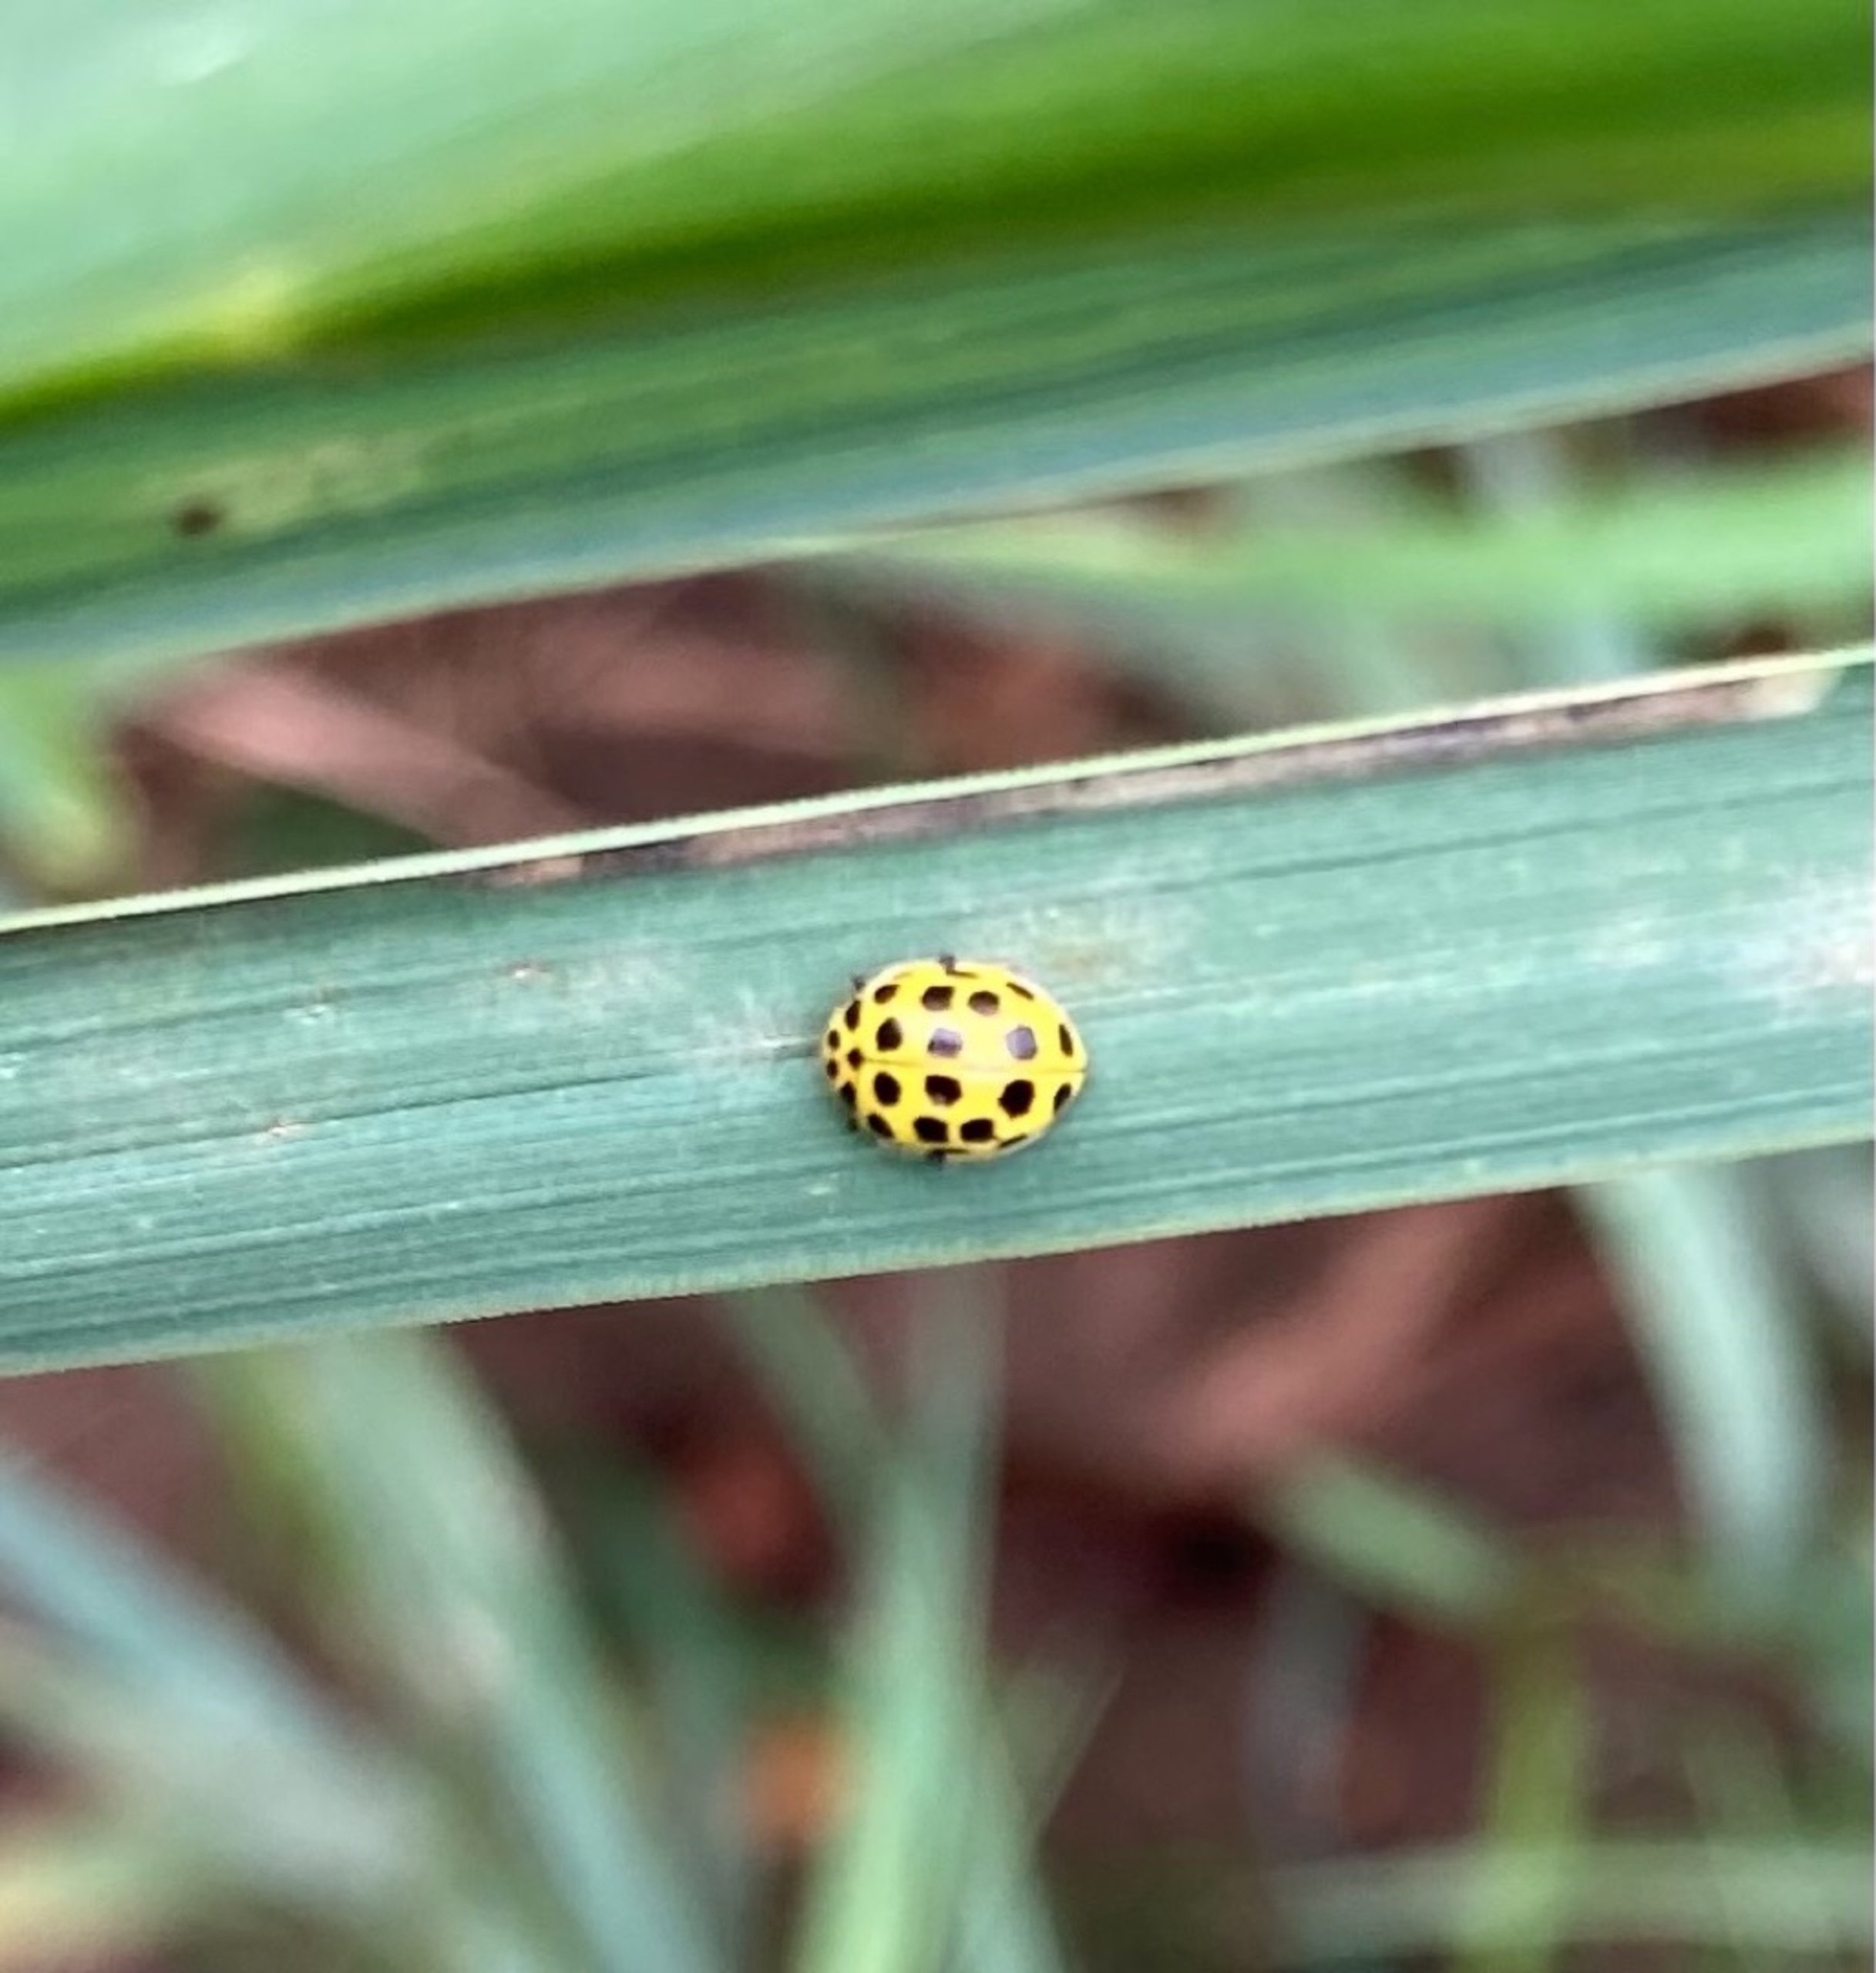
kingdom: Animalia
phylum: Arthropoda
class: Insecta
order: Coleoptera
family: Coccinellidae
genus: Psyllobora
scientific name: Psyllobora vigintiduopunctata
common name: Toogtyveplettet mariehøne
